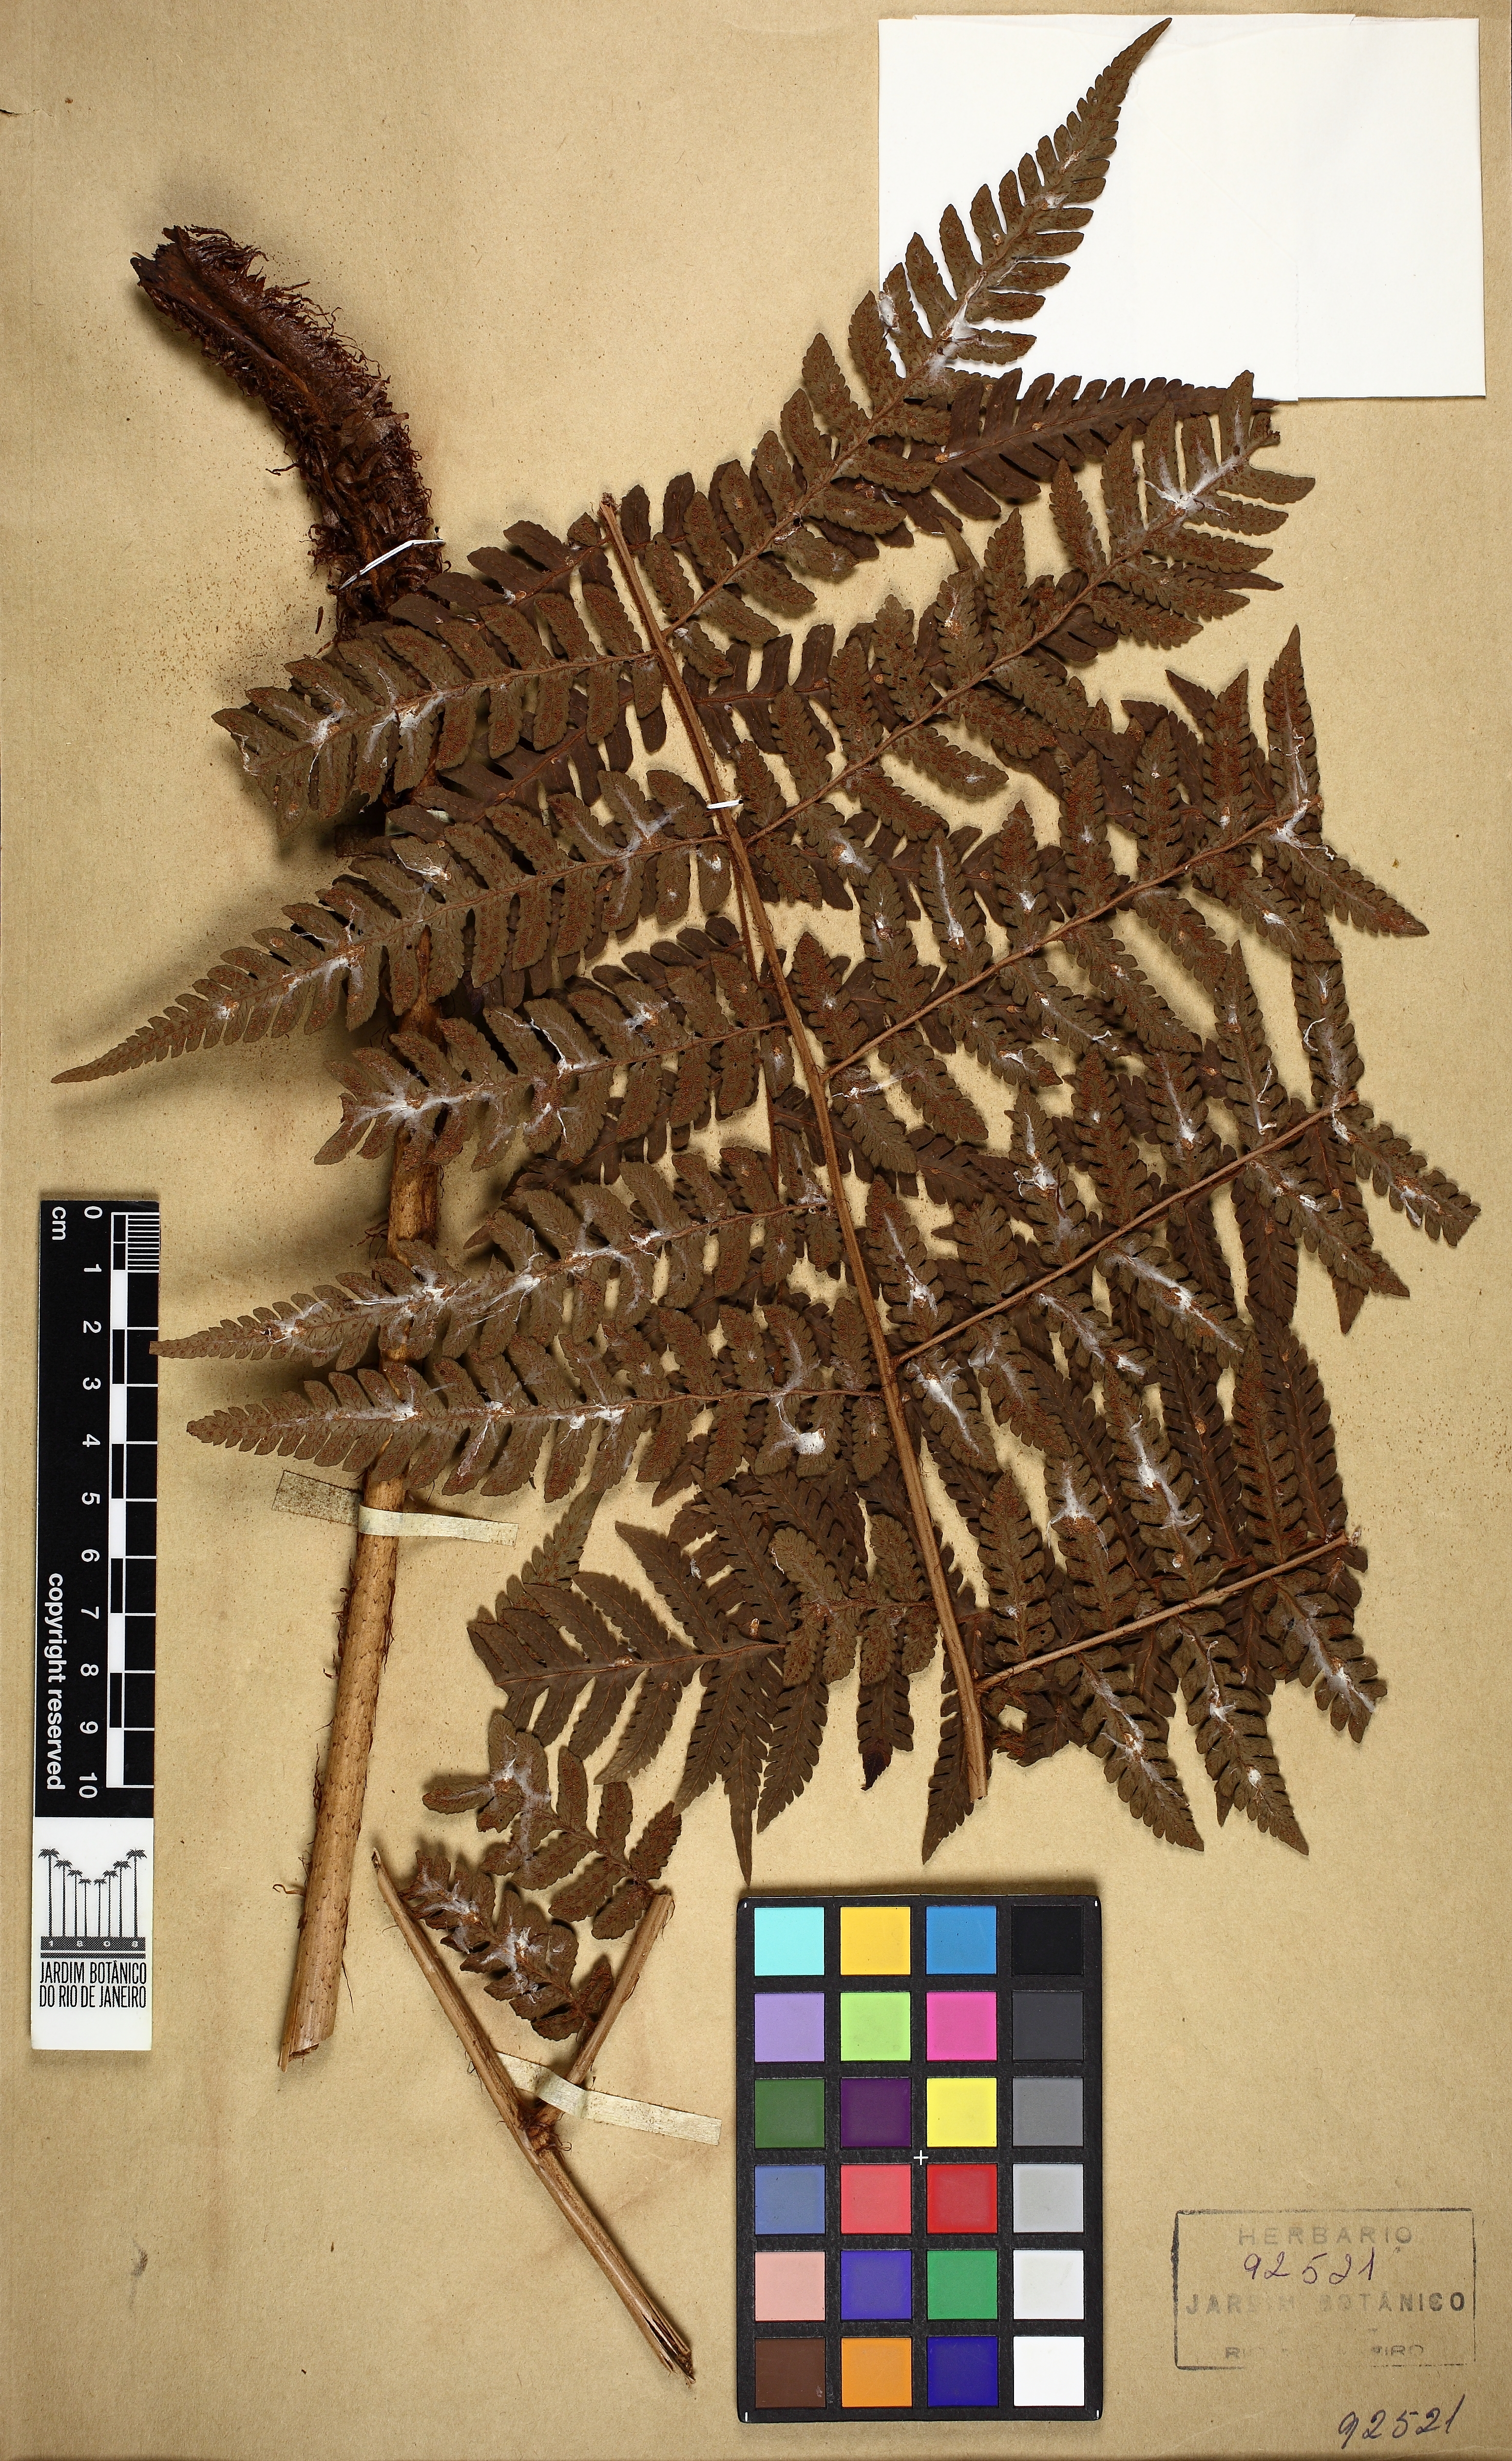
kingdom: Plantae
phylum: Tracheophyta
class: Polypodiopsida
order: Polypodiales
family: Dryopteridaceae
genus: Megalastrum
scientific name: Megalastrum organense
